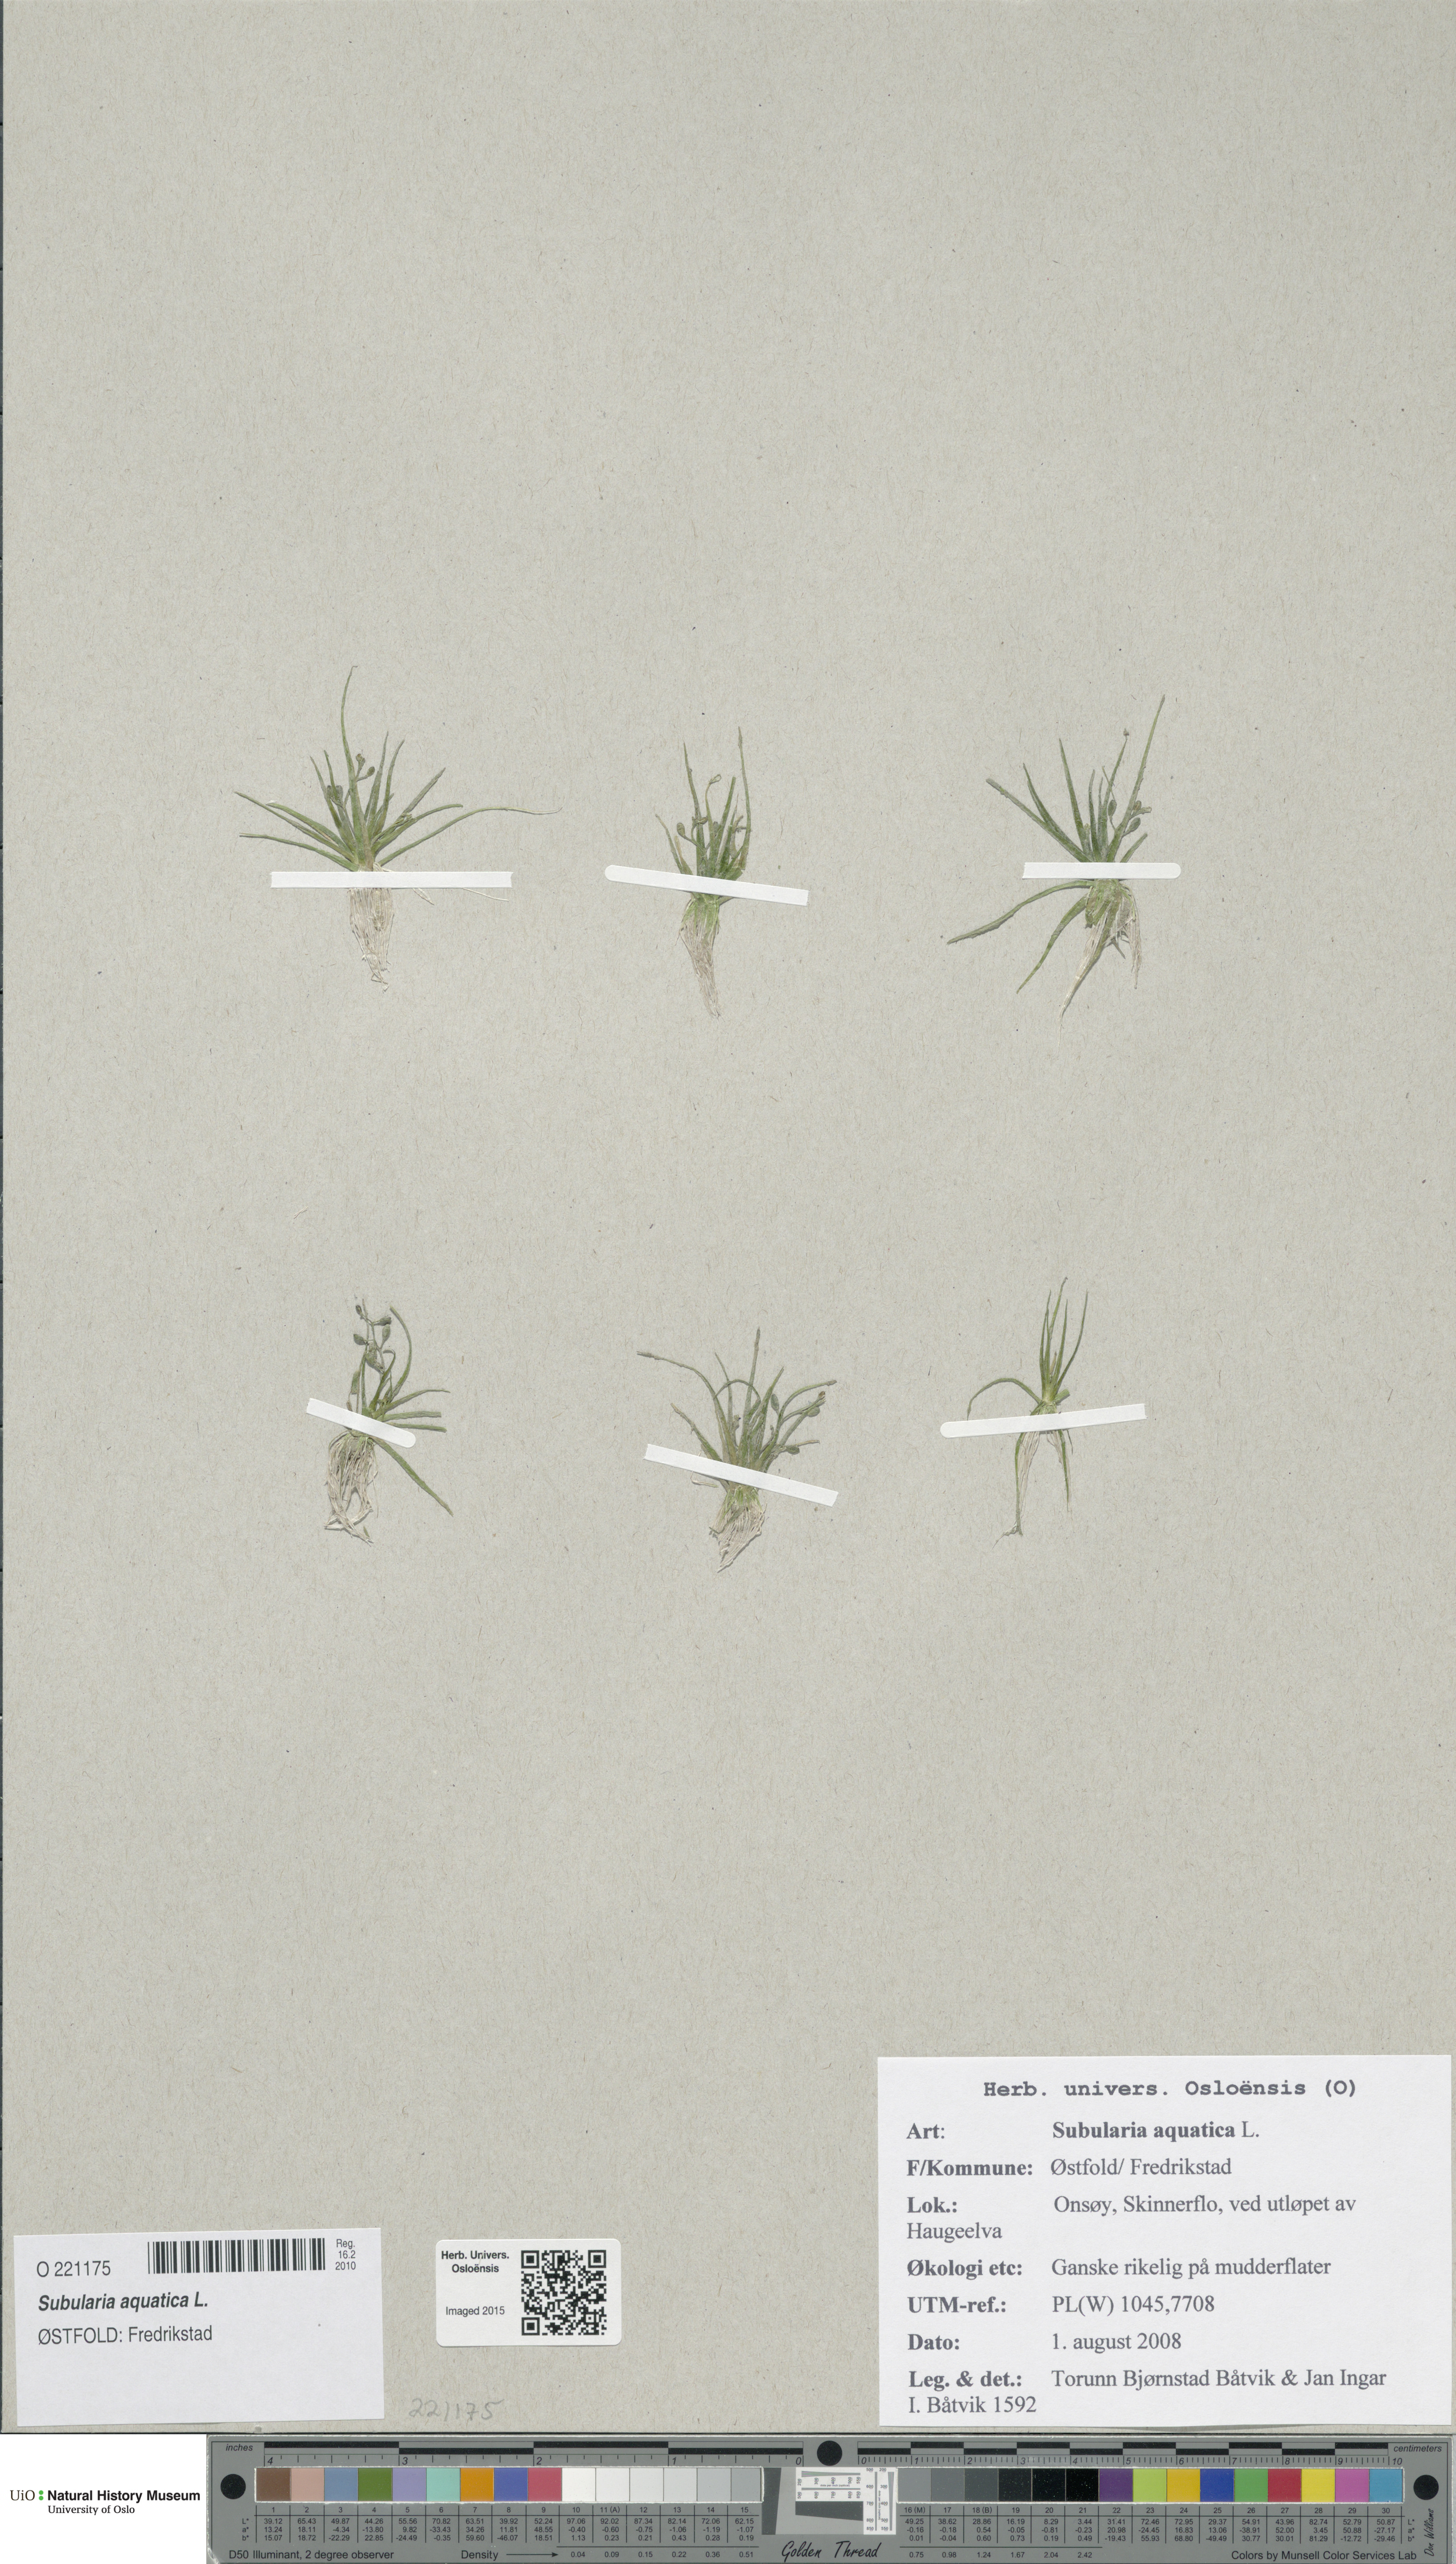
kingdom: Plantae
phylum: Tracheophyta
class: Magnoliopsida
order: Brassicales
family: Brassicaceae
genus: Subularia
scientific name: Subularia aquatica
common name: Awlwort
